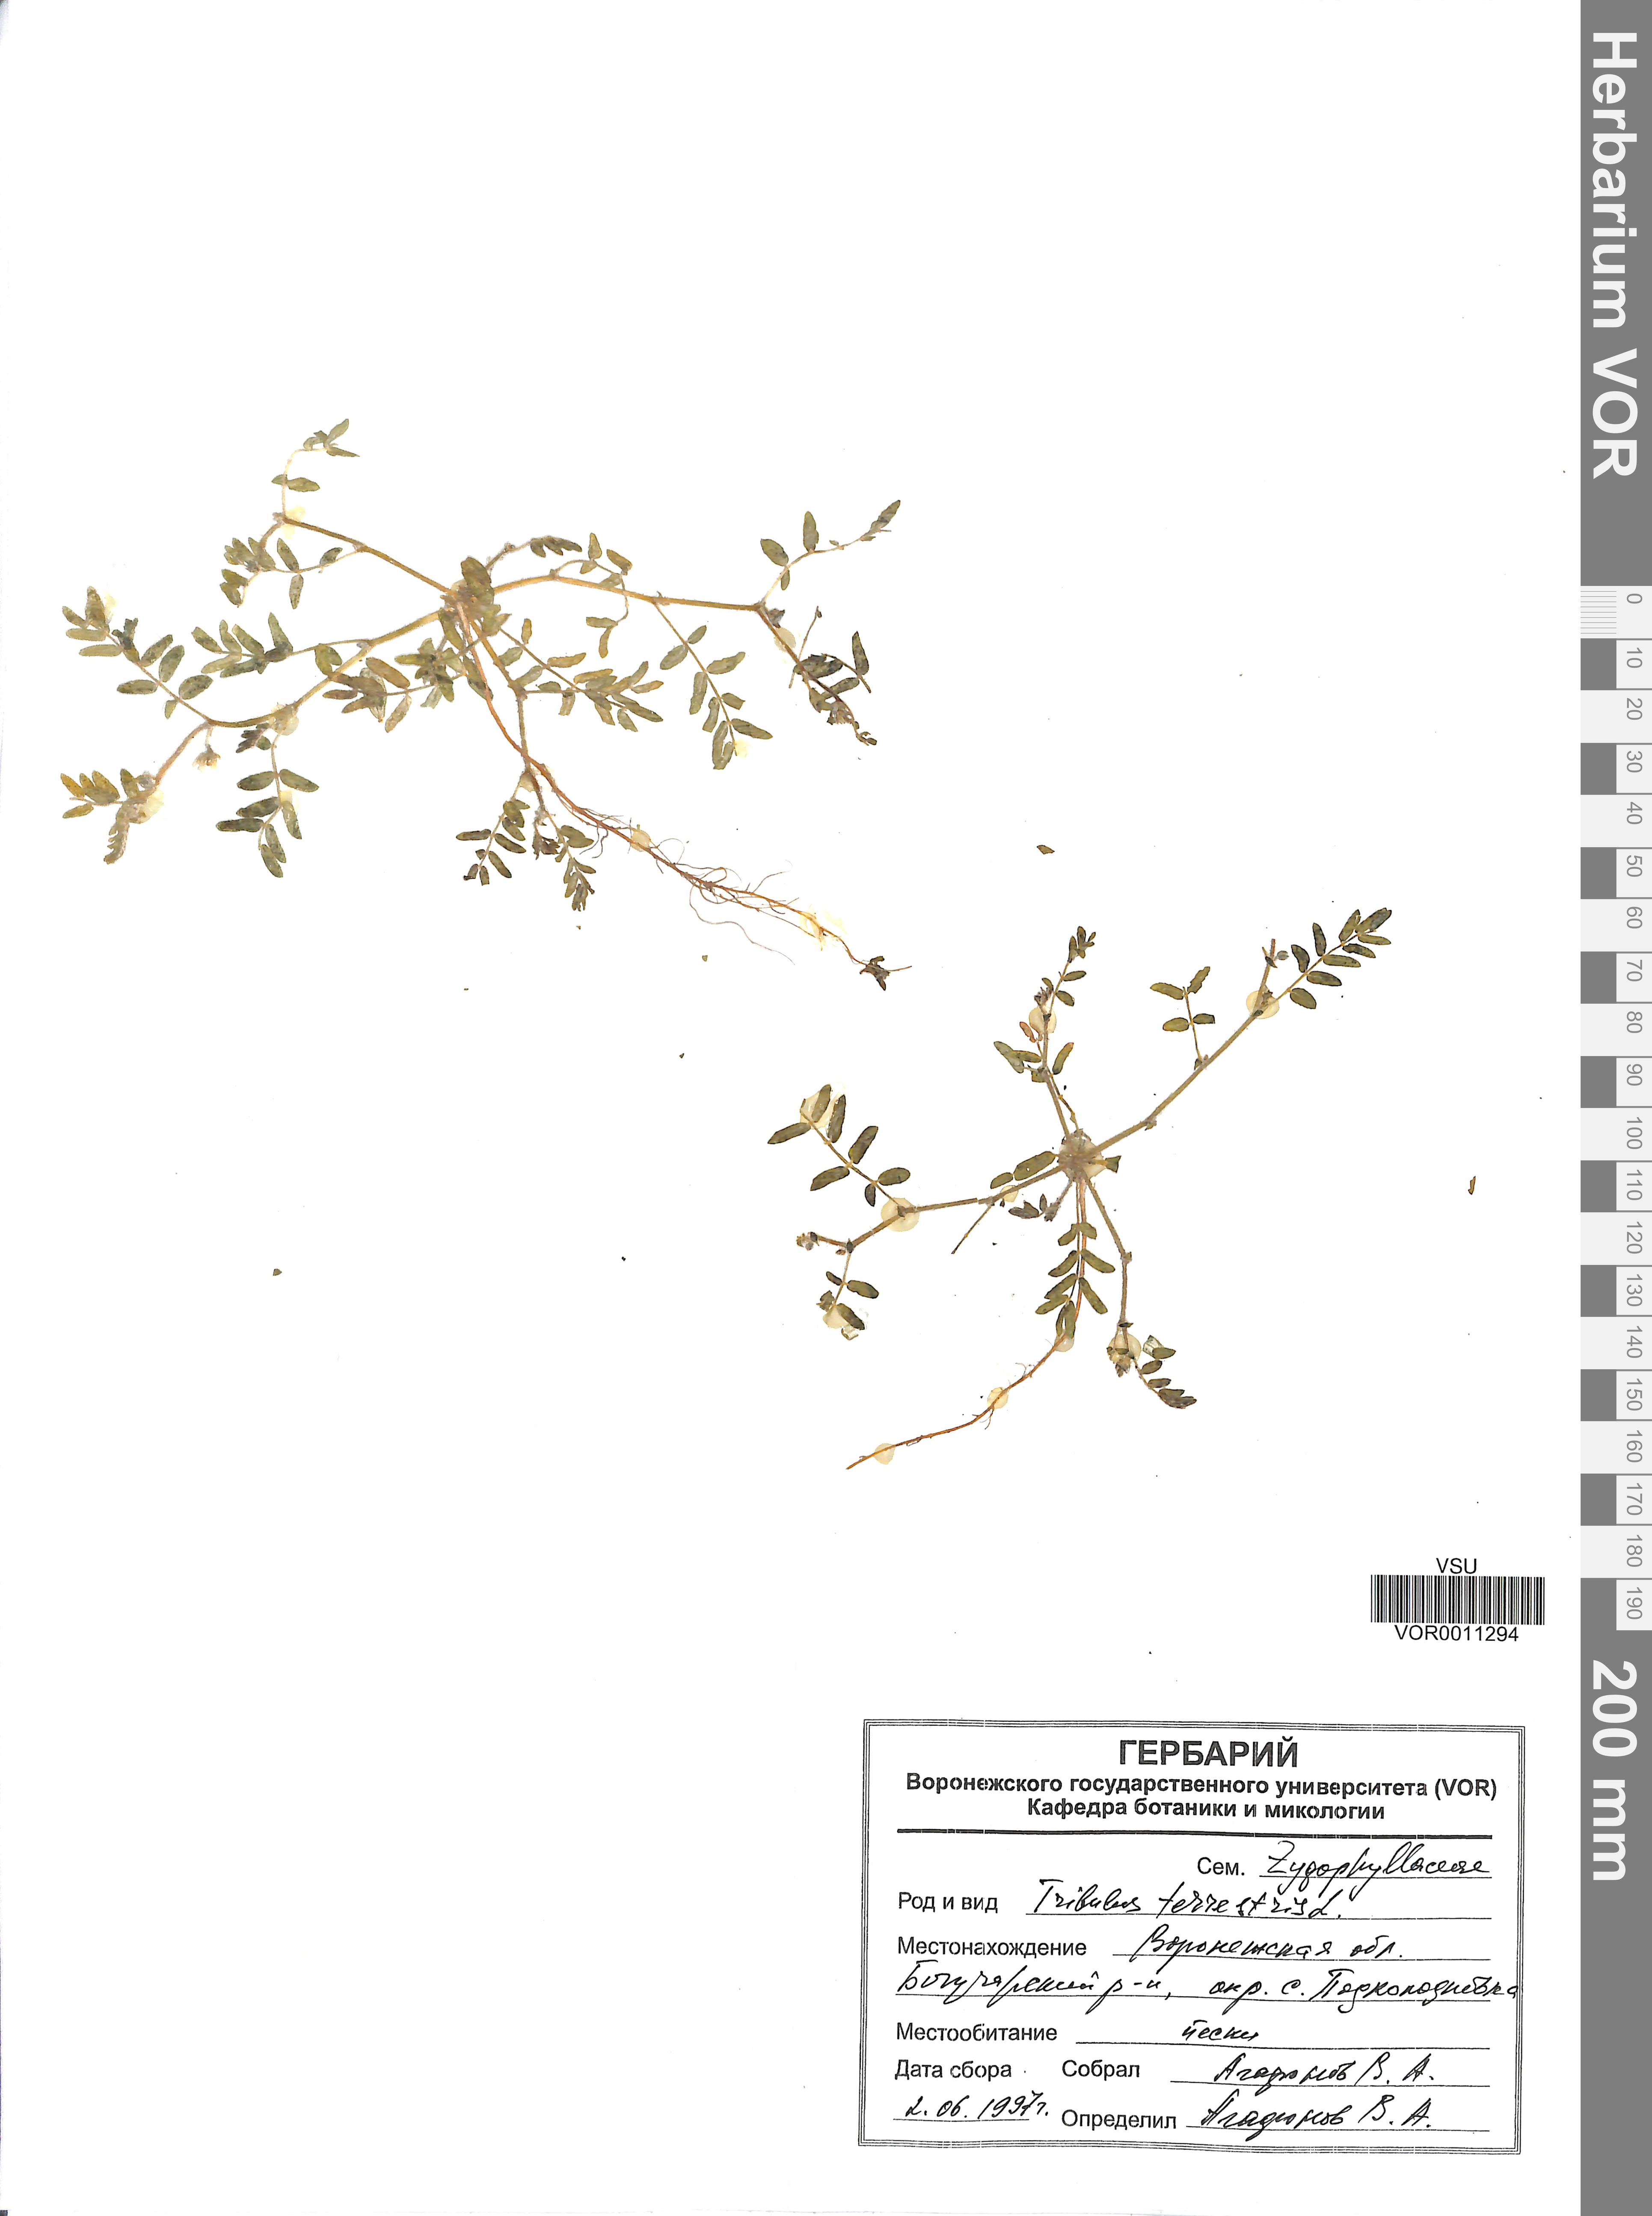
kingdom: Plantae
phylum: Tracheophyta
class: Magnoliopsida
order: Zygophyllales
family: Zygophyllaceae
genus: Tribulus
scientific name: Tribulus terrestris
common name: Puncturevine
